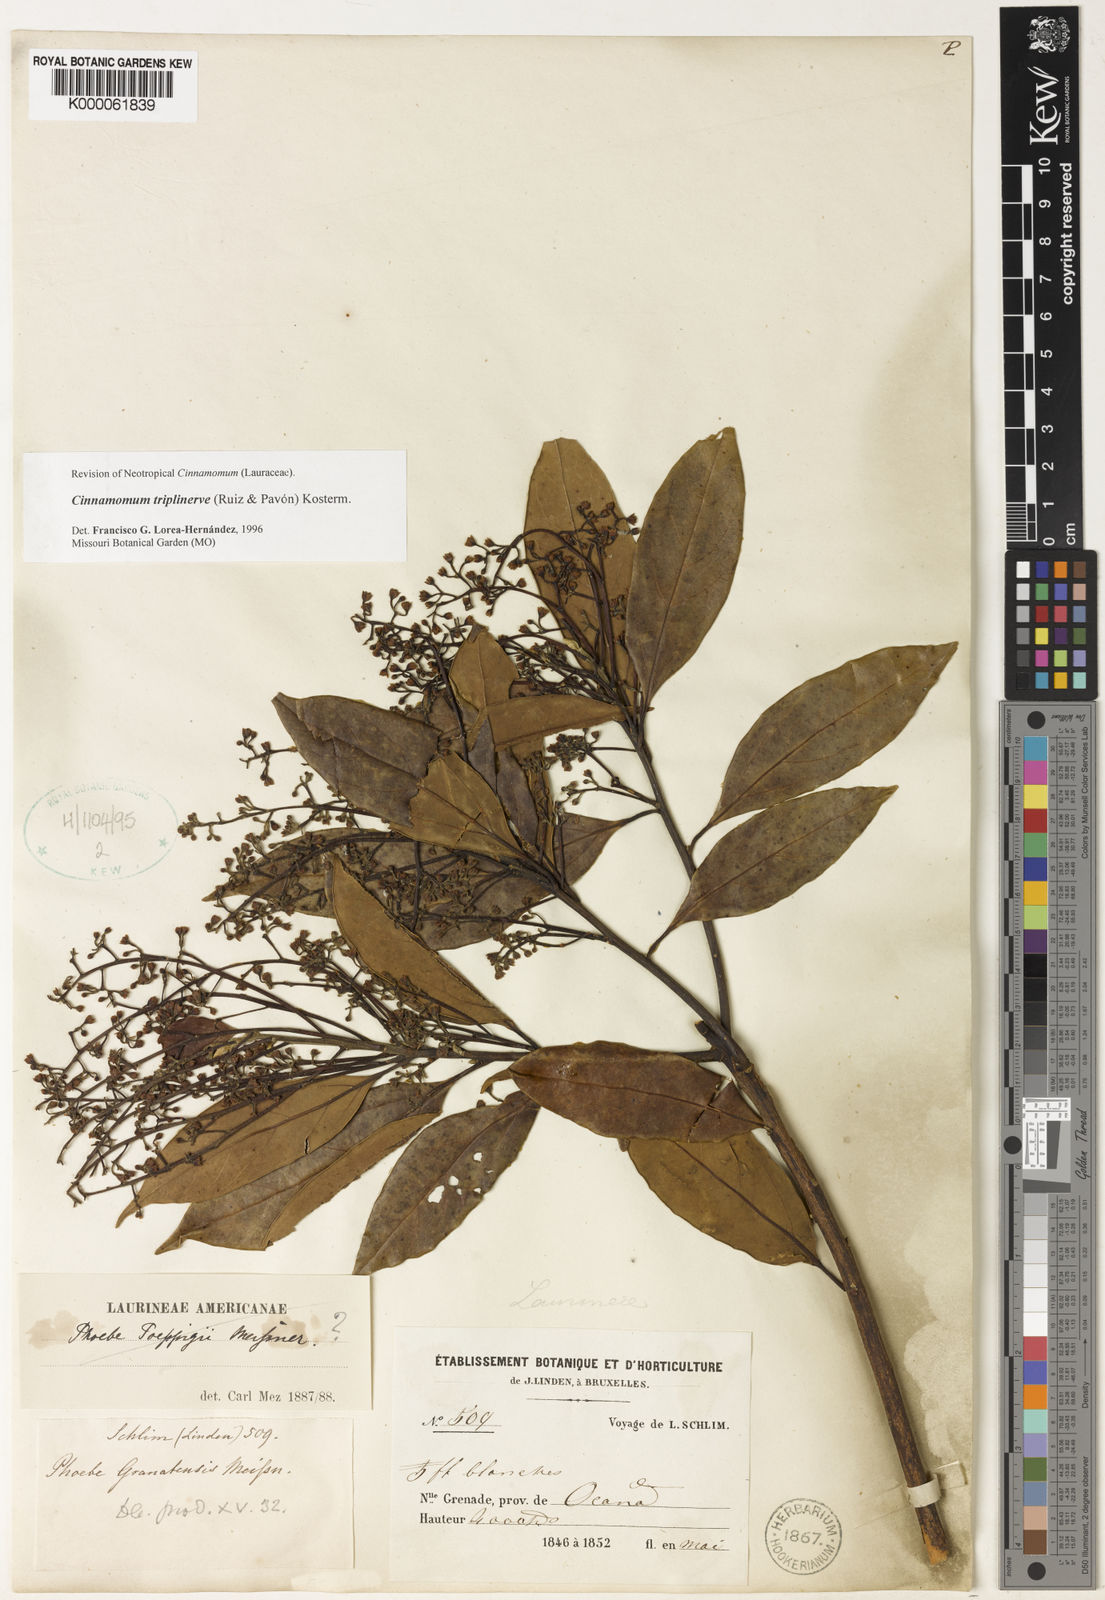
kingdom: Plantae
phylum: Tracheophyta
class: Magnoliopsida
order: Laurales
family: Lauraceae
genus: Aiouea
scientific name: Aiouea montana
